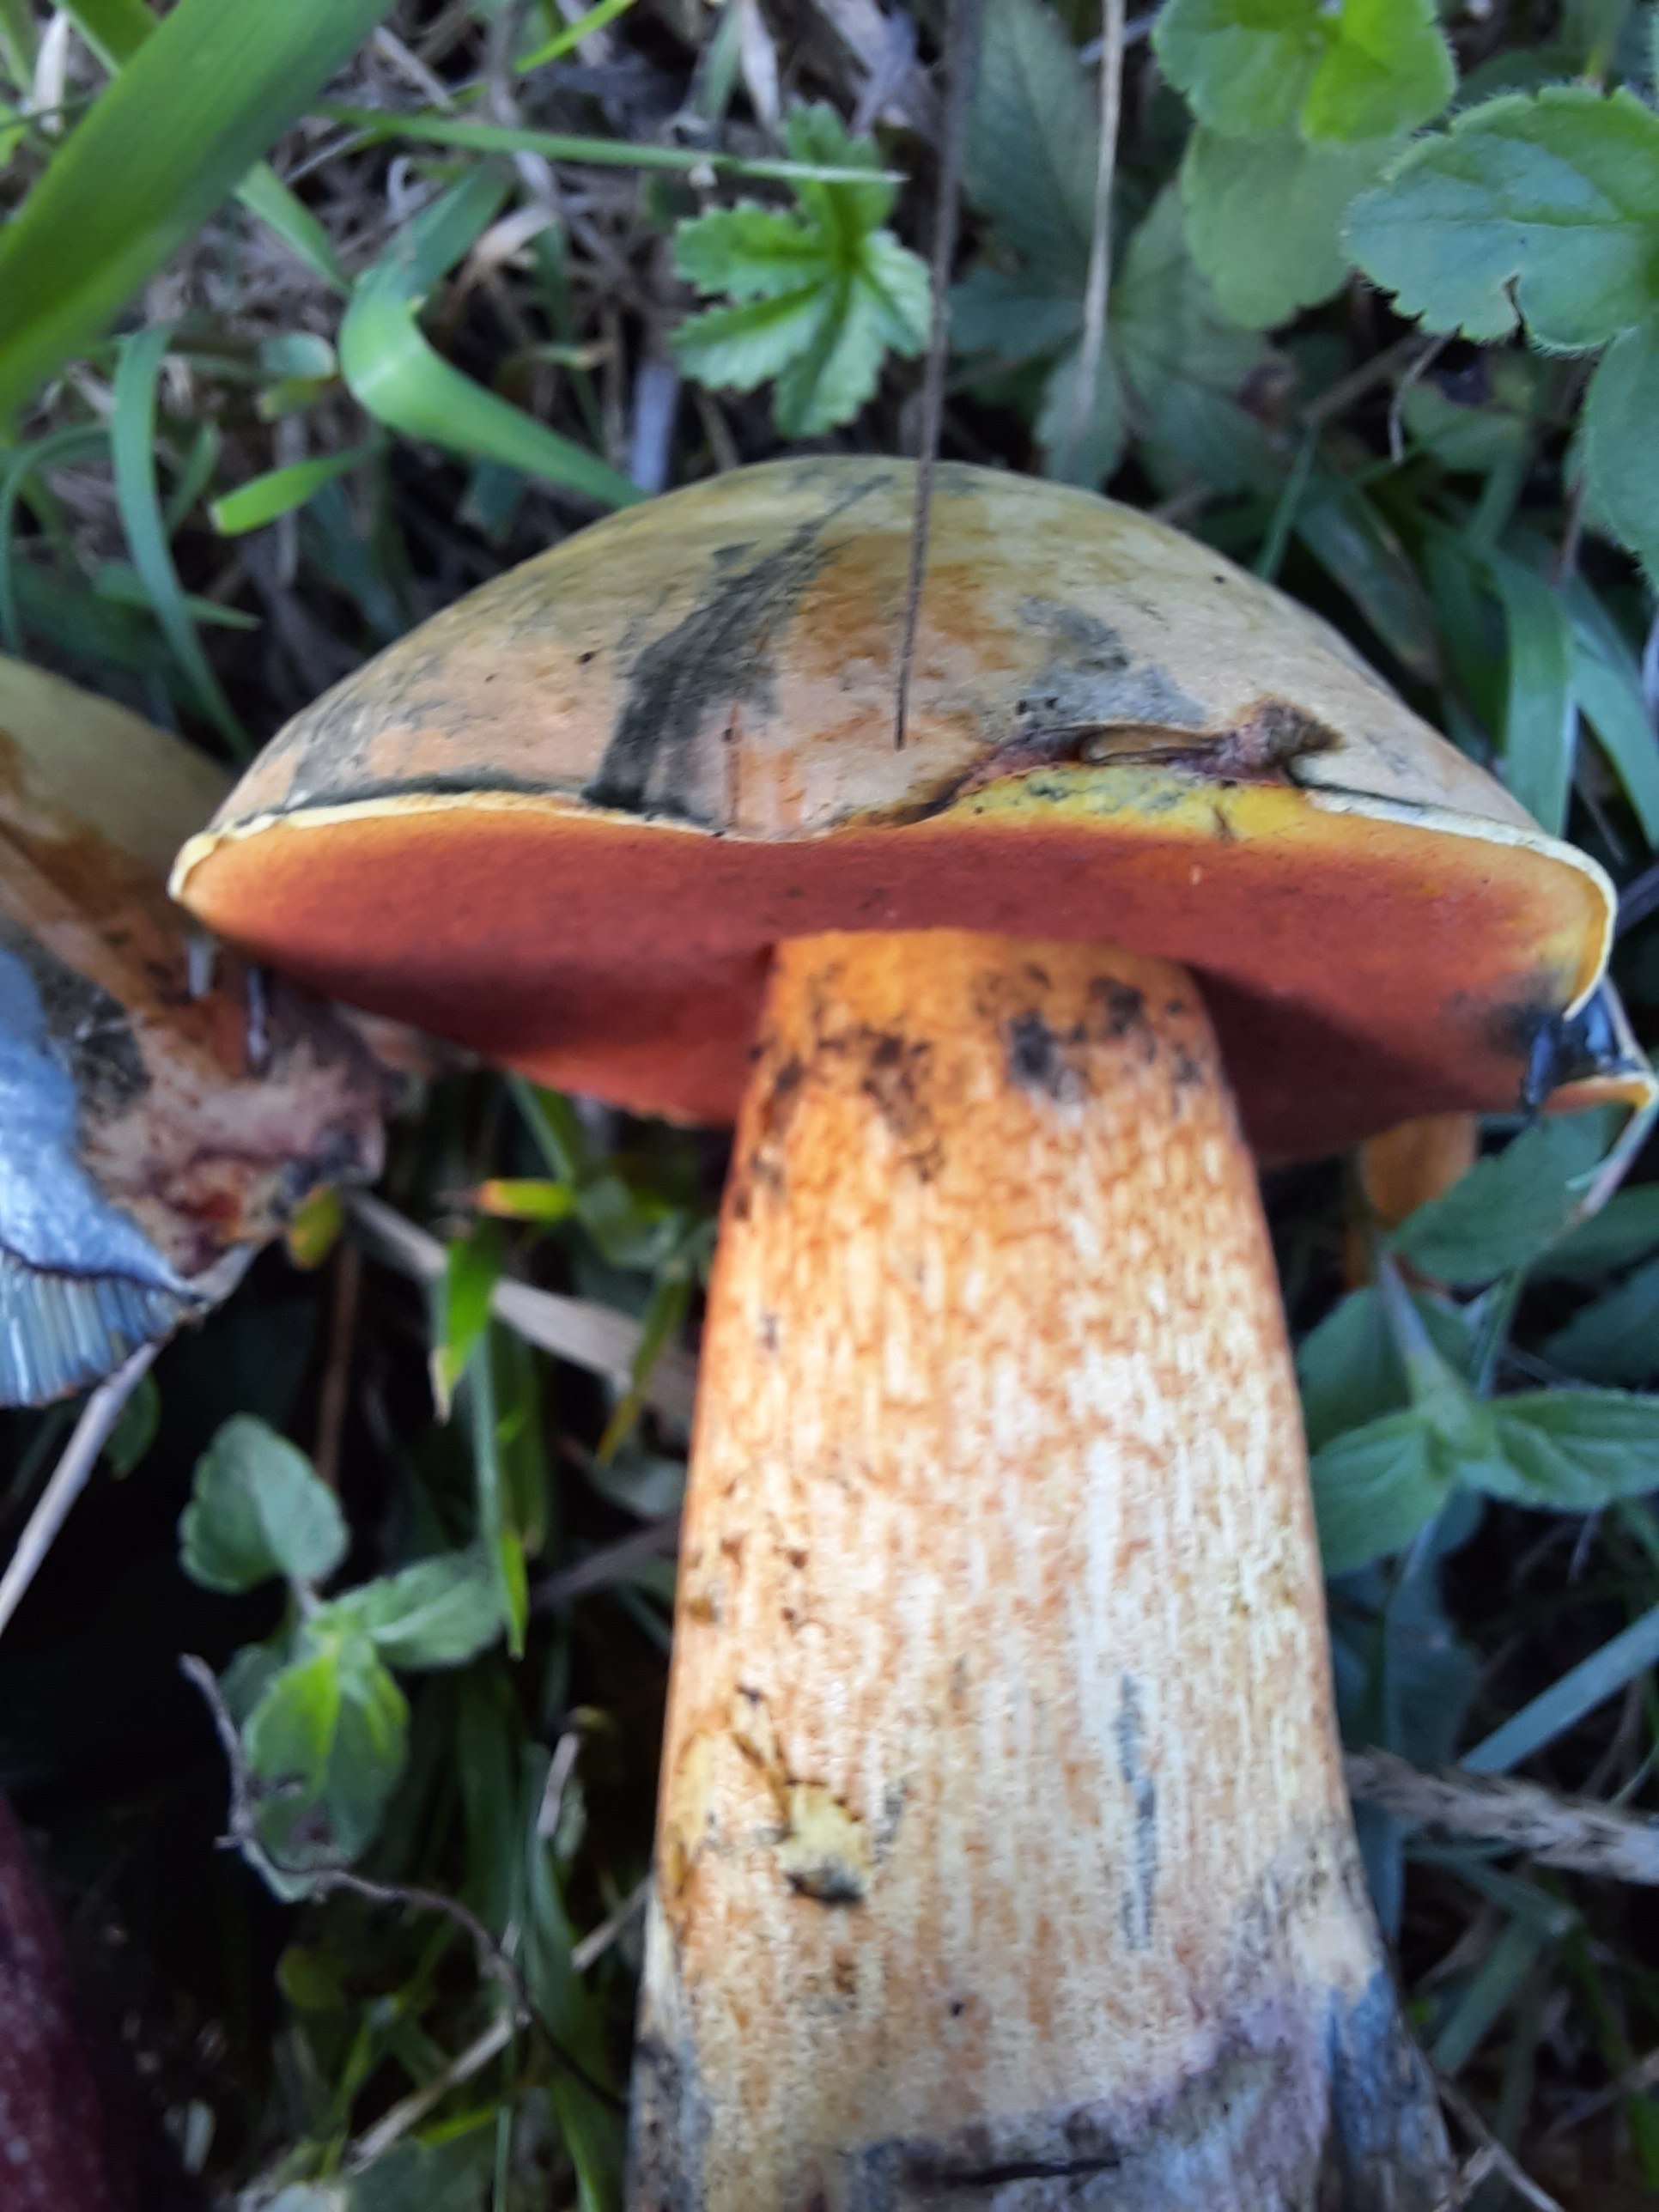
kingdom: Fungi
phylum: Basidiomycota
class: Agaricomycetes
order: Boletales
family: Boletaceae
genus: Suillellus
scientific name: Suillellus luridus
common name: netstokket indigorørhat
